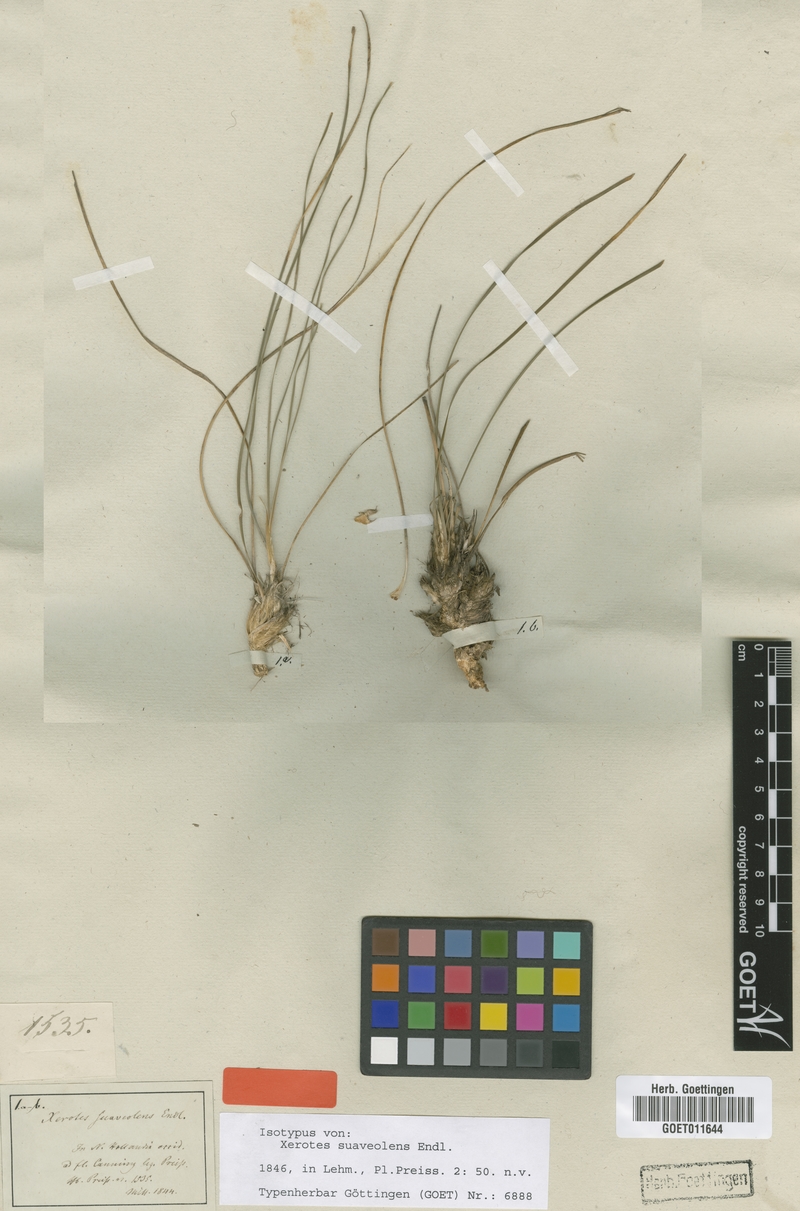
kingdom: Plantae
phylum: Tracheophyta
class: Liliopsida
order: Asparagales
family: Asparagaceae
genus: Lomandra
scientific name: Lomandra suaveolens
